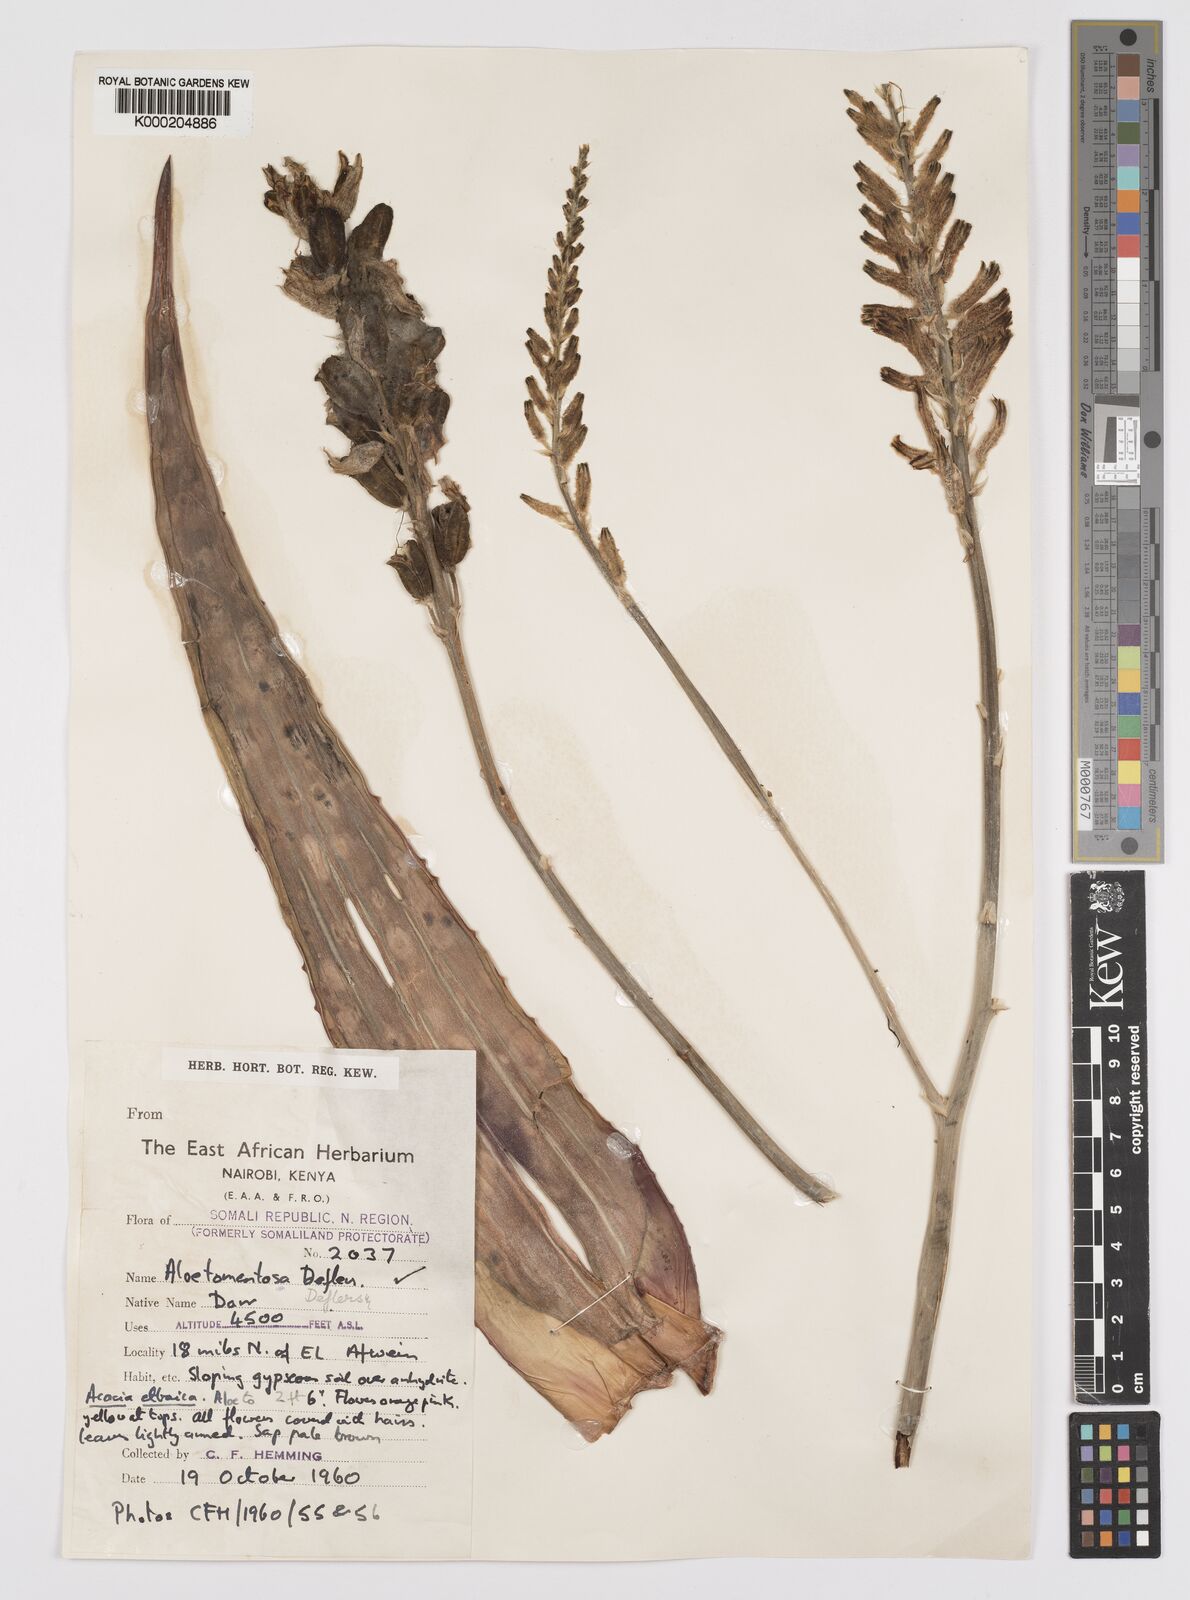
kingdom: Plantae
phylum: Tracheophyta
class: Liliopsida
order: Asparagales
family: Asphodelaceae
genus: Aloe
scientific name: Aloe molederana
